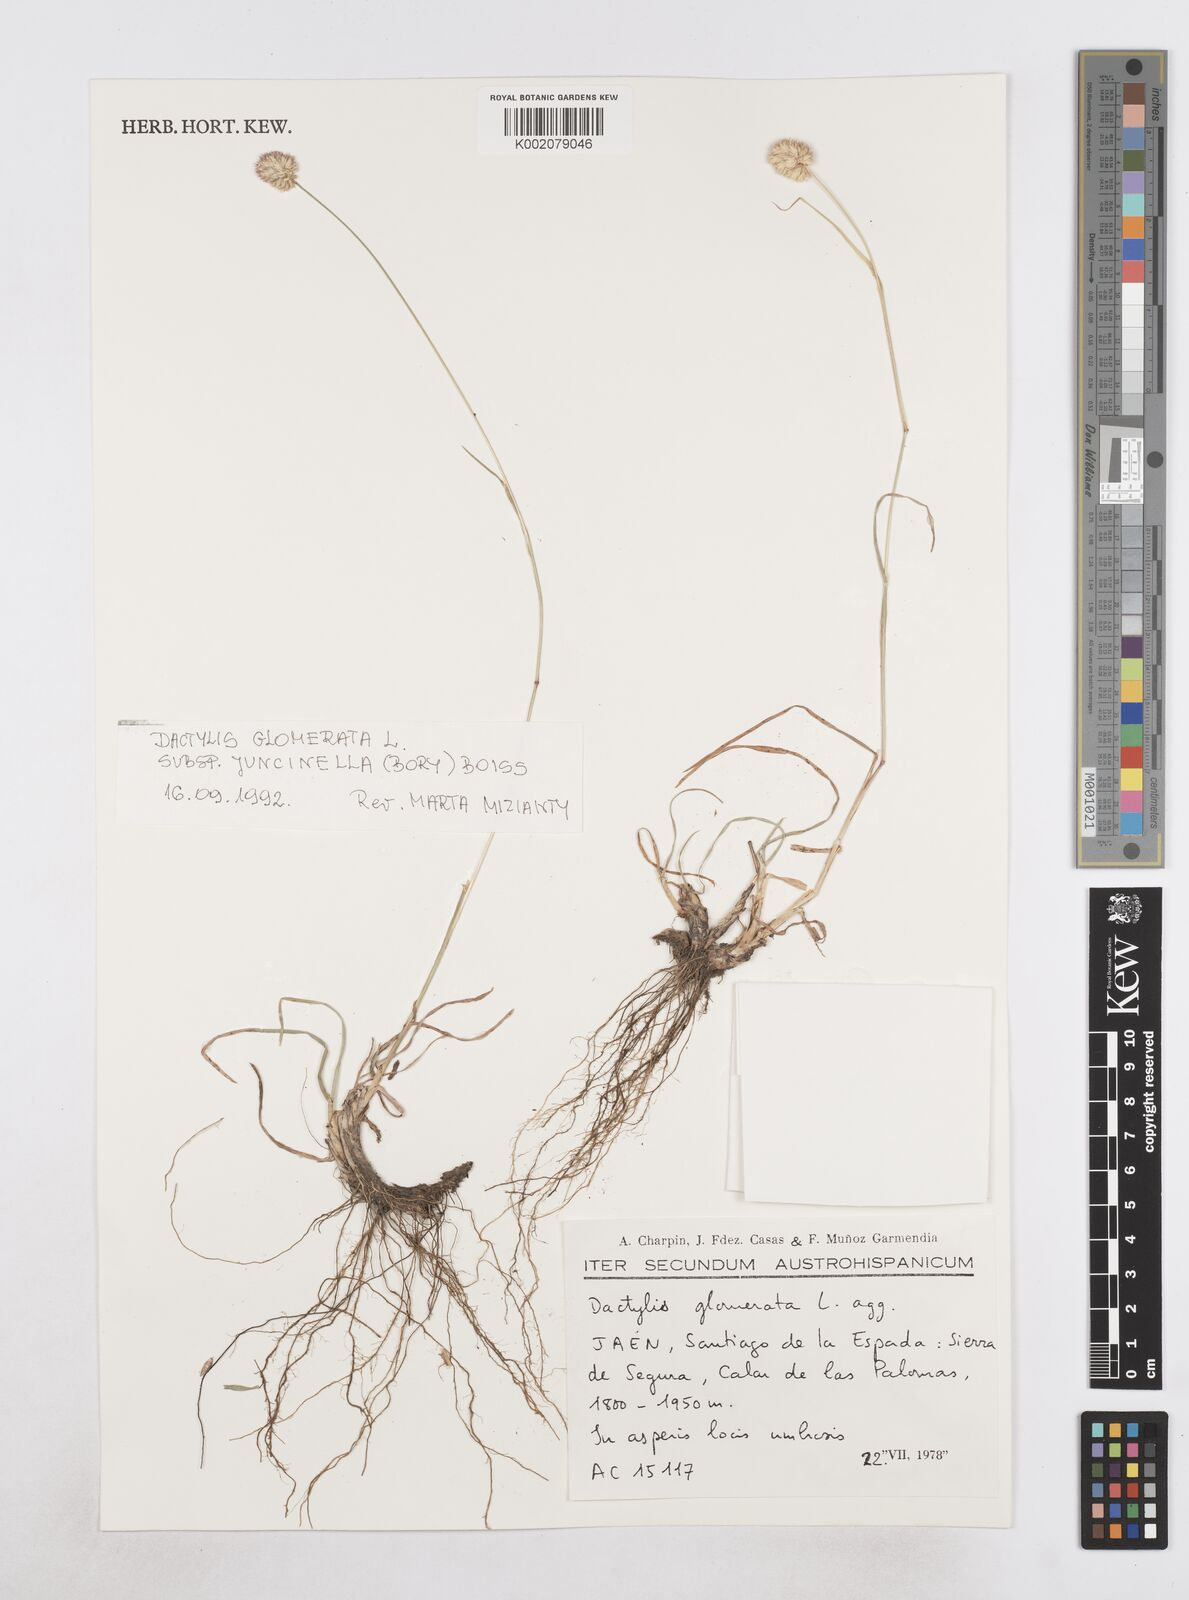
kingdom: Plantae
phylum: Tracheophyta
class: Liliopsida
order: Poales
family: Poaceae
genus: Dactylis
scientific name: Dactylis glomerata
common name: Orchardgrass
